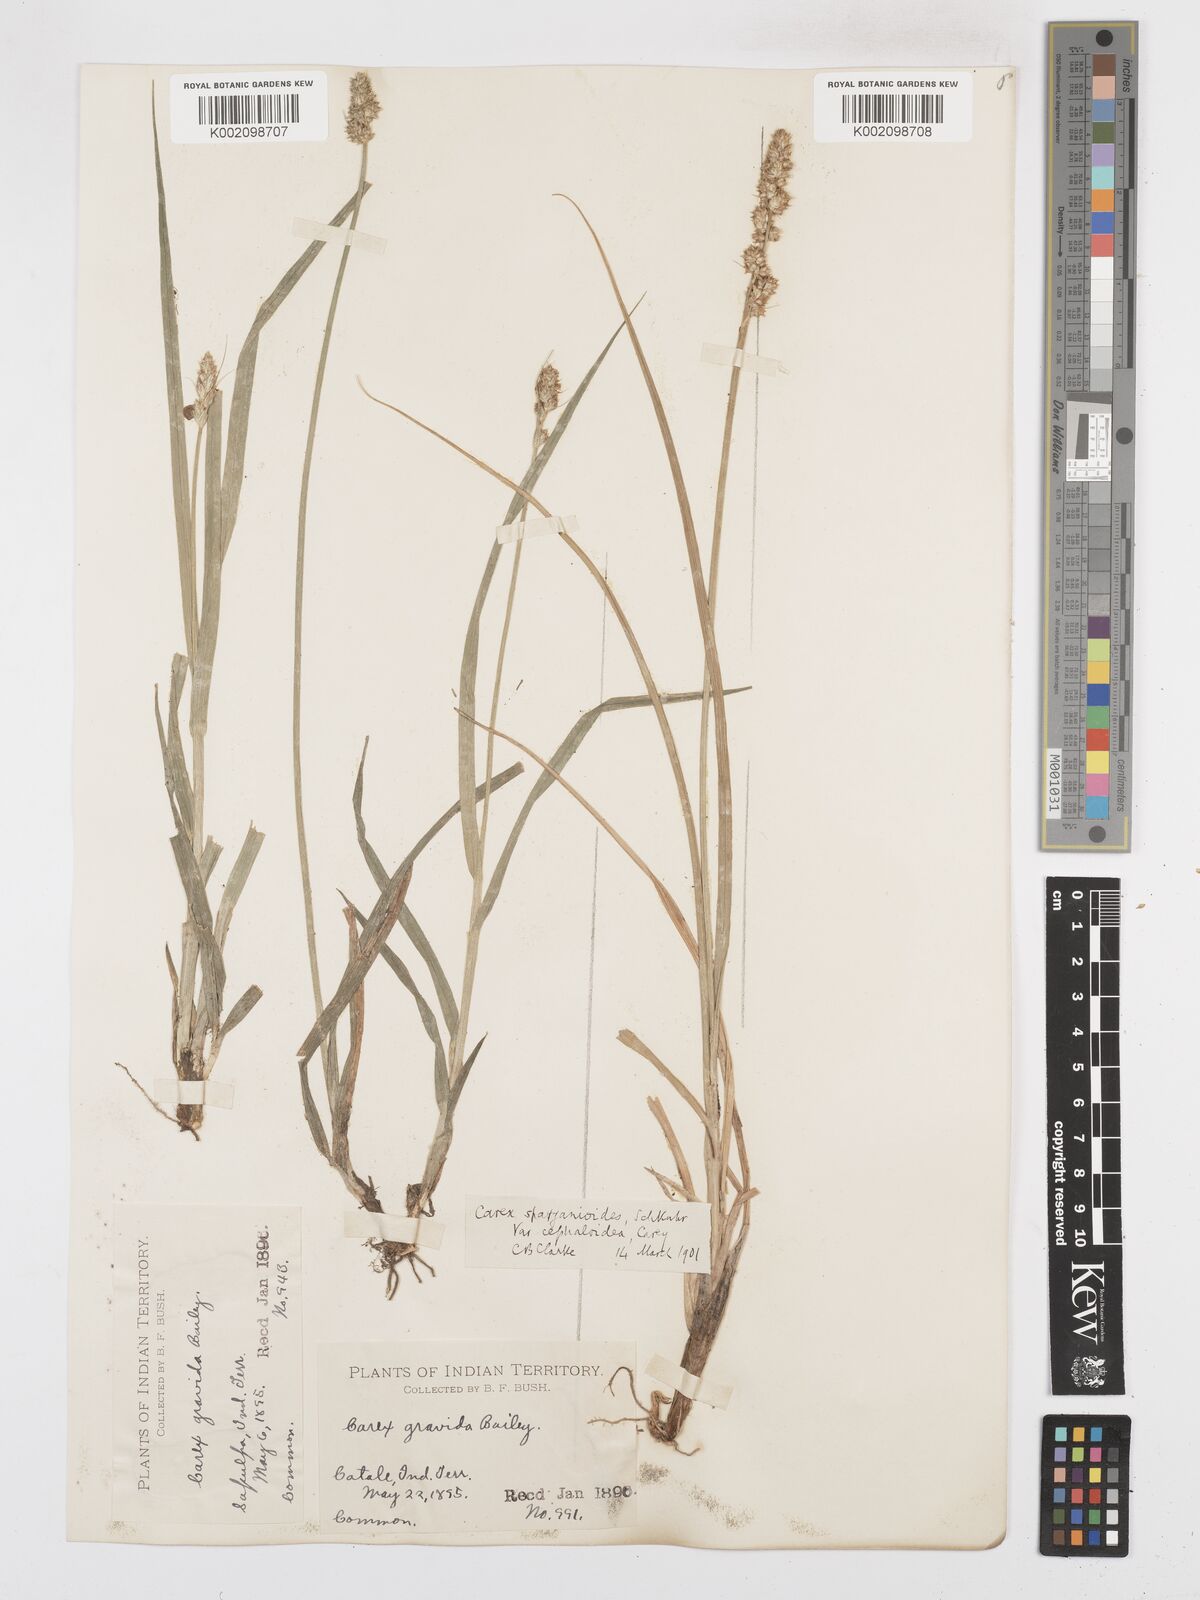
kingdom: Plantae
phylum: Tracheophyta
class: Liliopsida
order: Poales
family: Cyperaceae
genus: Carex
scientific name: Carex gravida
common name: Heavy sedge
